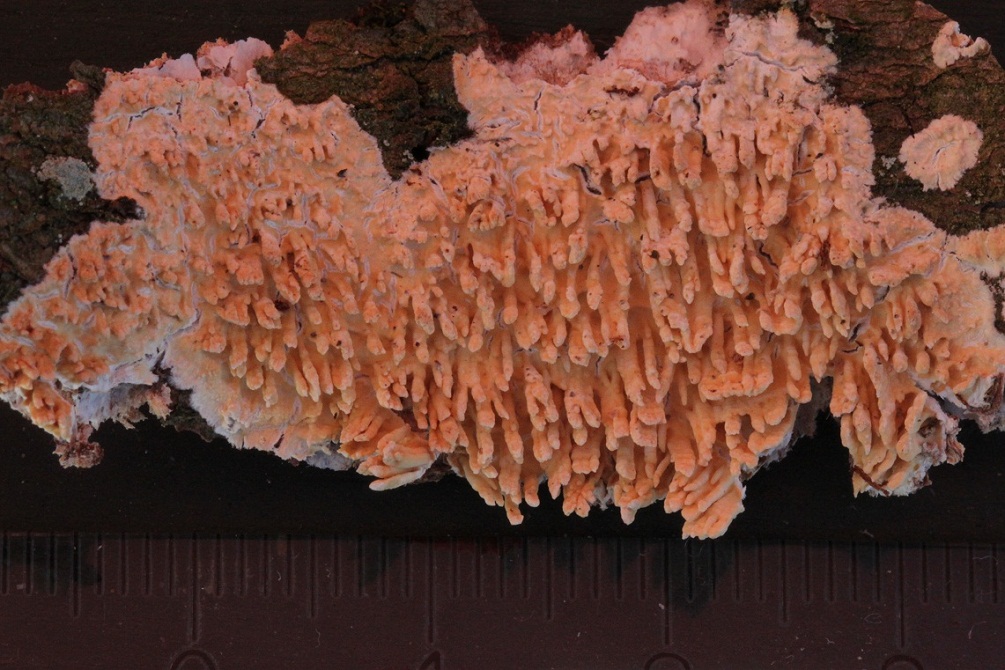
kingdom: Fungi
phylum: Basidiomycota
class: Agaricomycetes
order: Hymenochaetales
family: Schizoporaceae
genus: Xylodon
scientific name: Xylodon radula
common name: grovtandet kalkskind
